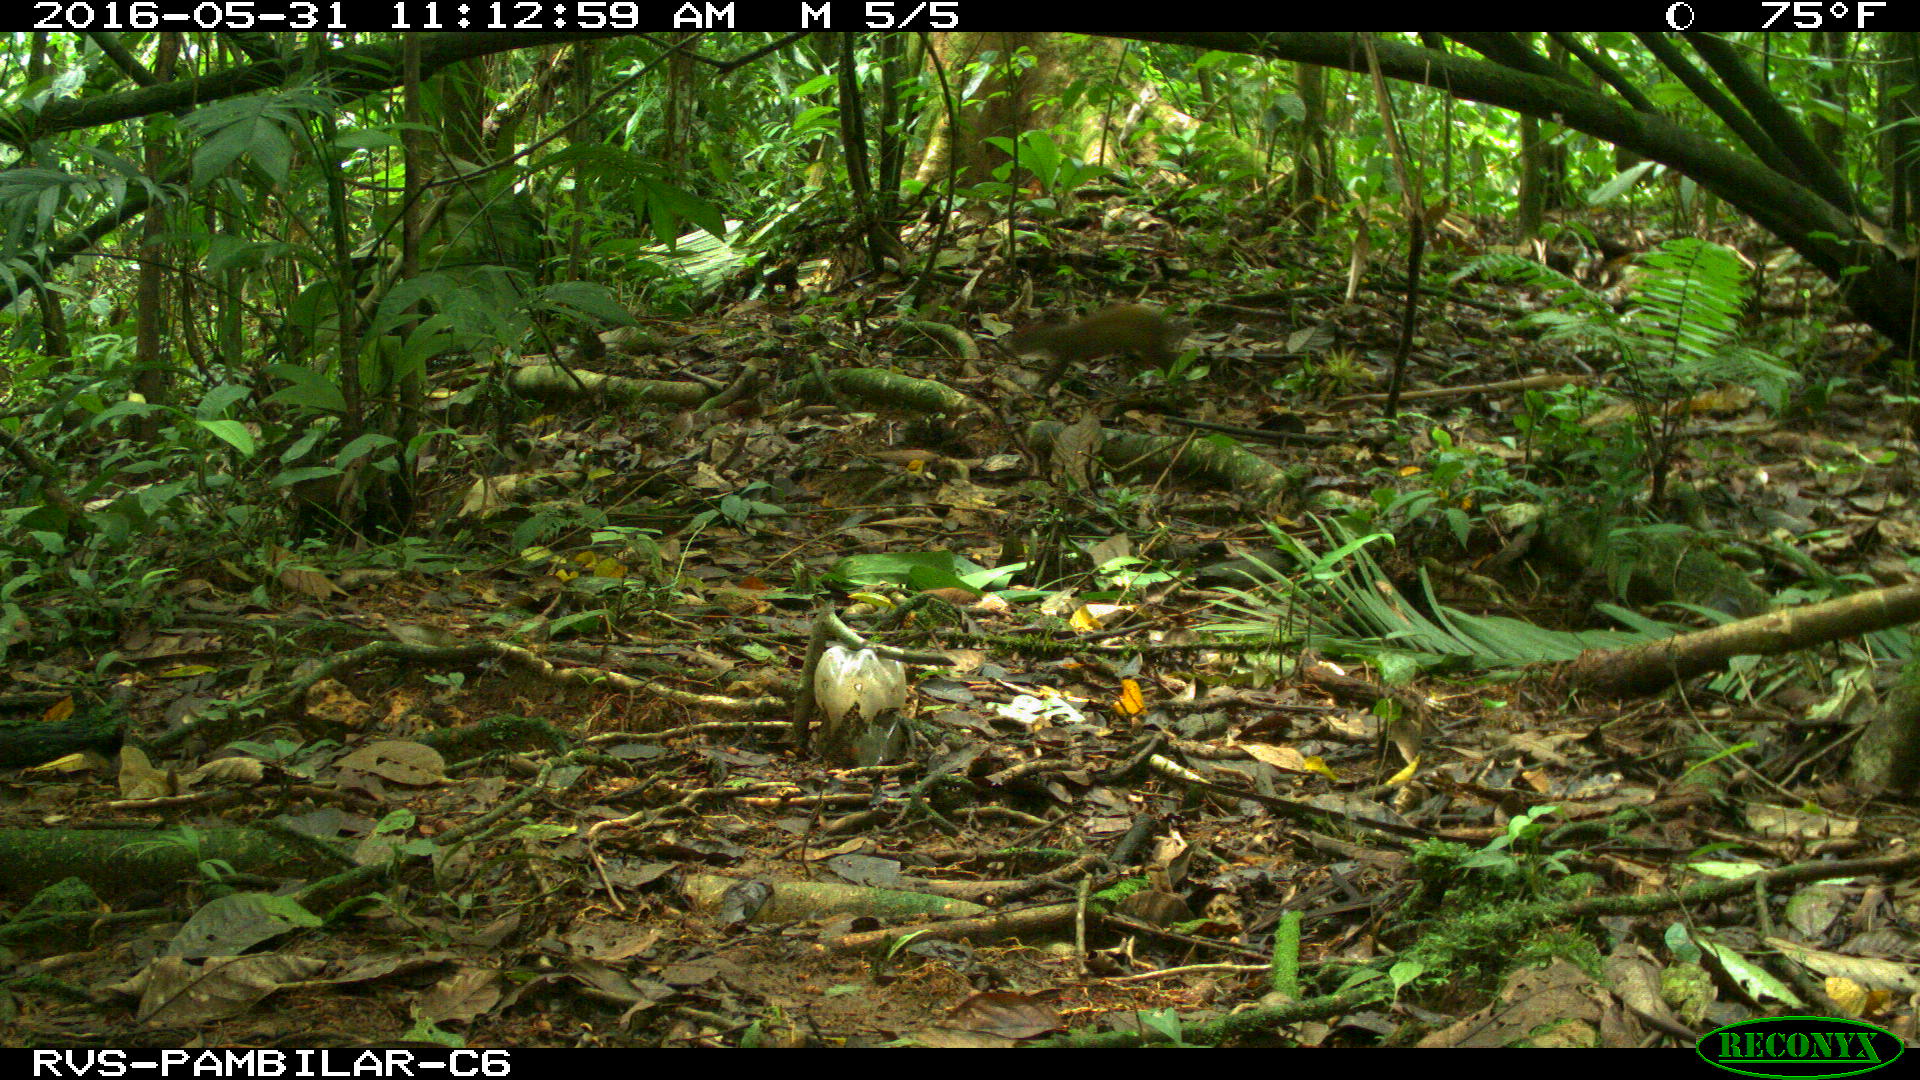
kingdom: Animalia
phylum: Chordata
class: Mammalia
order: Rodentia
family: Dasyproctidae
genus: Dasyprocta
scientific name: Dasyprocta punctata
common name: Central american agouti
